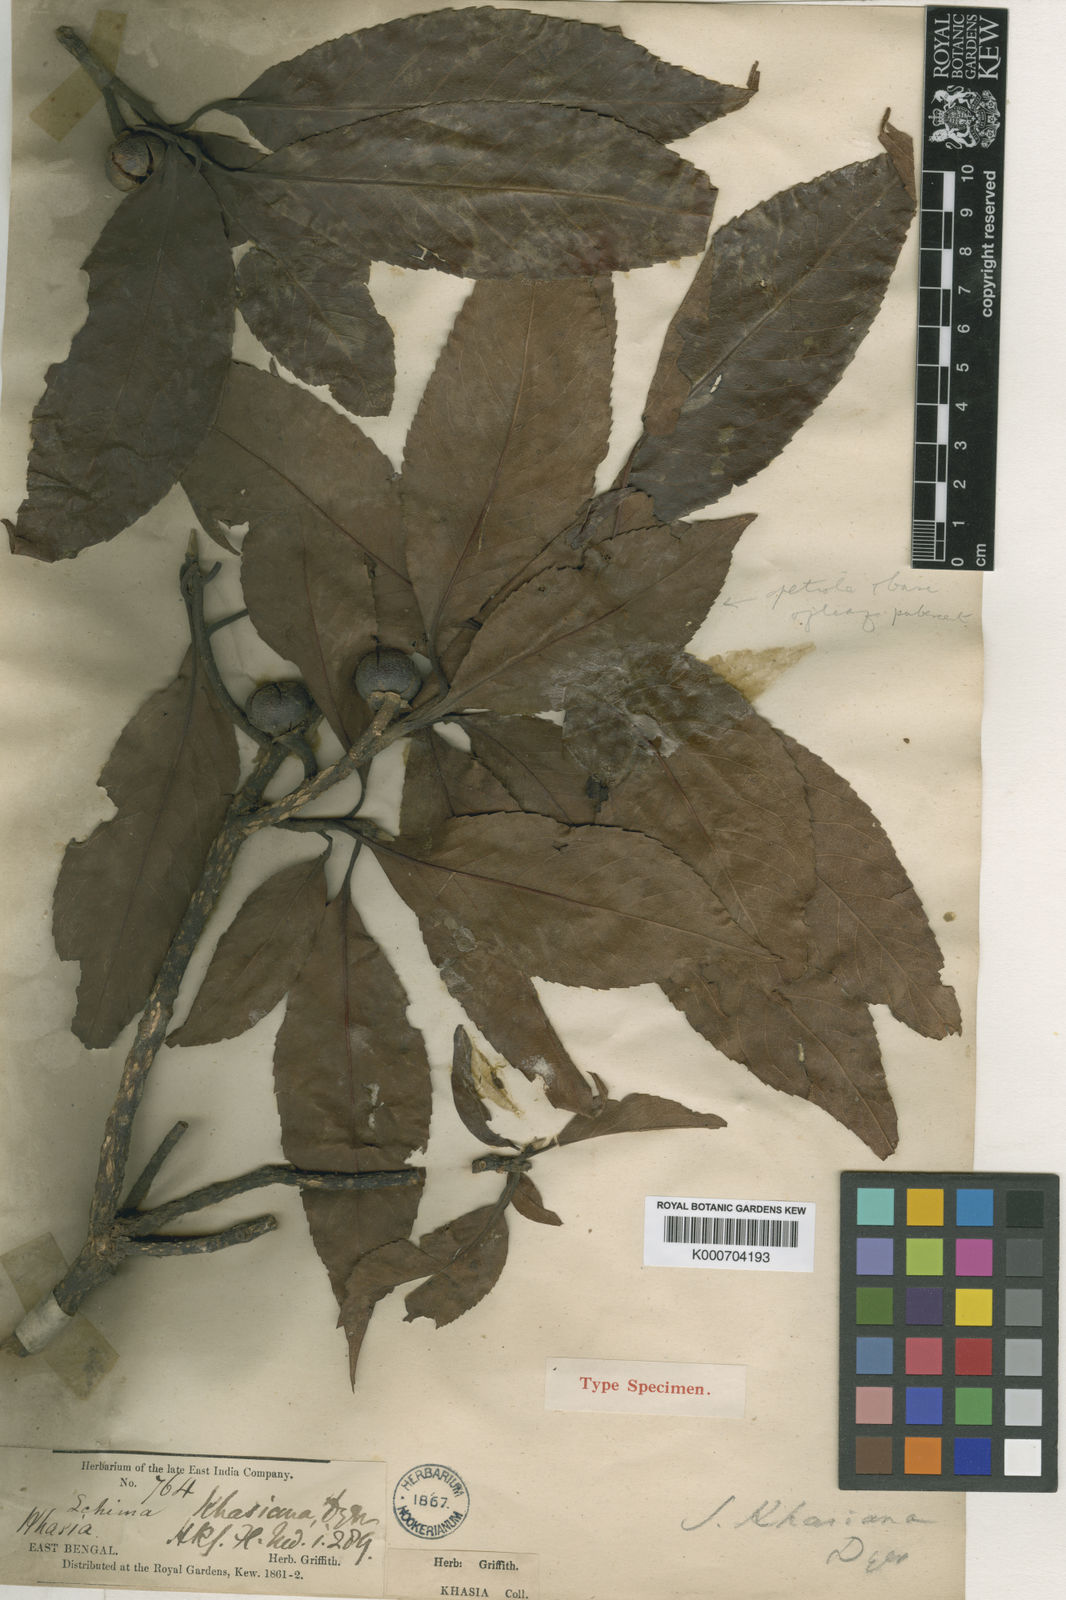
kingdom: Plantae
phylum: Tracheophyta
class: Magnoliopsida
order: Ericales
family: Theaceae
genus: Schima
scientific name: Schima
